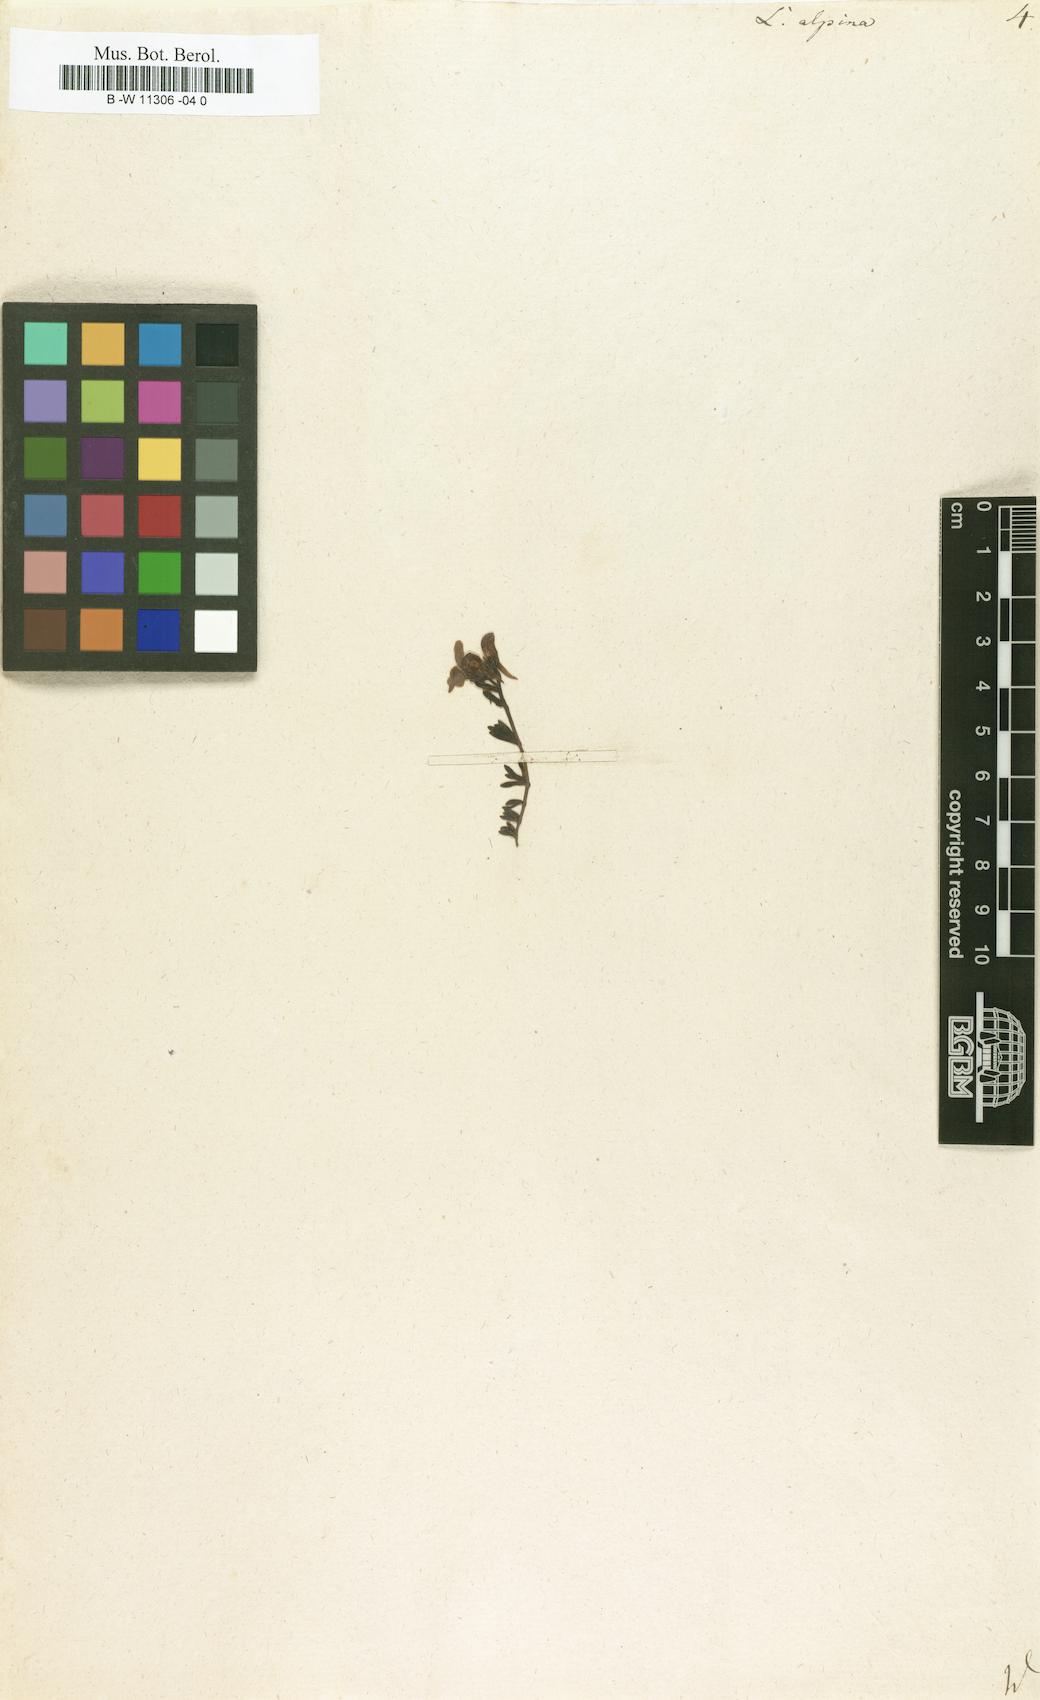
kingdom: Plantae
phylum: Tracheophyta
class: Magnoliopsida
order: Lamiales
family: Plantaginaceae
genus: Linaria
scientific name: Linaria alpina
